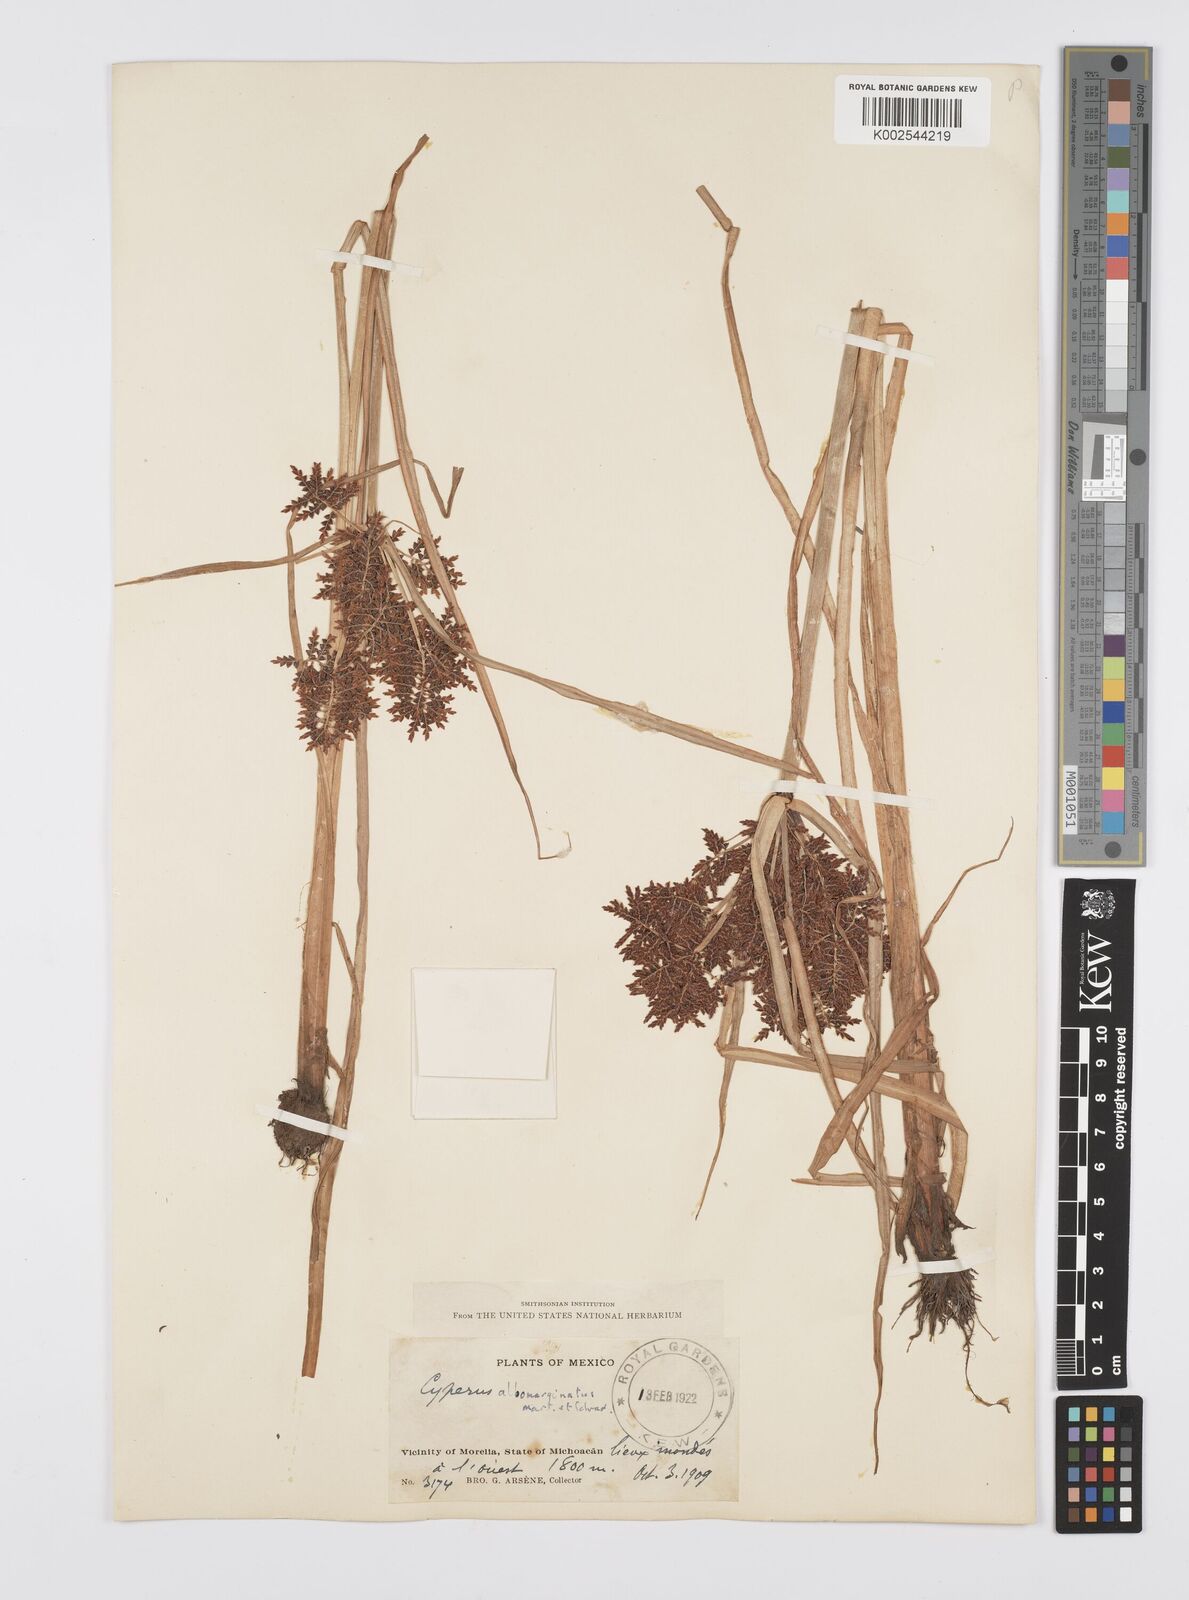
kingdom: Plantae
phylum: Tracheophyta
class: Liliopsida
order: Poales
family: Cyperaceae
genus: Cyperus
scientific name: Cyperus macrostachyos
